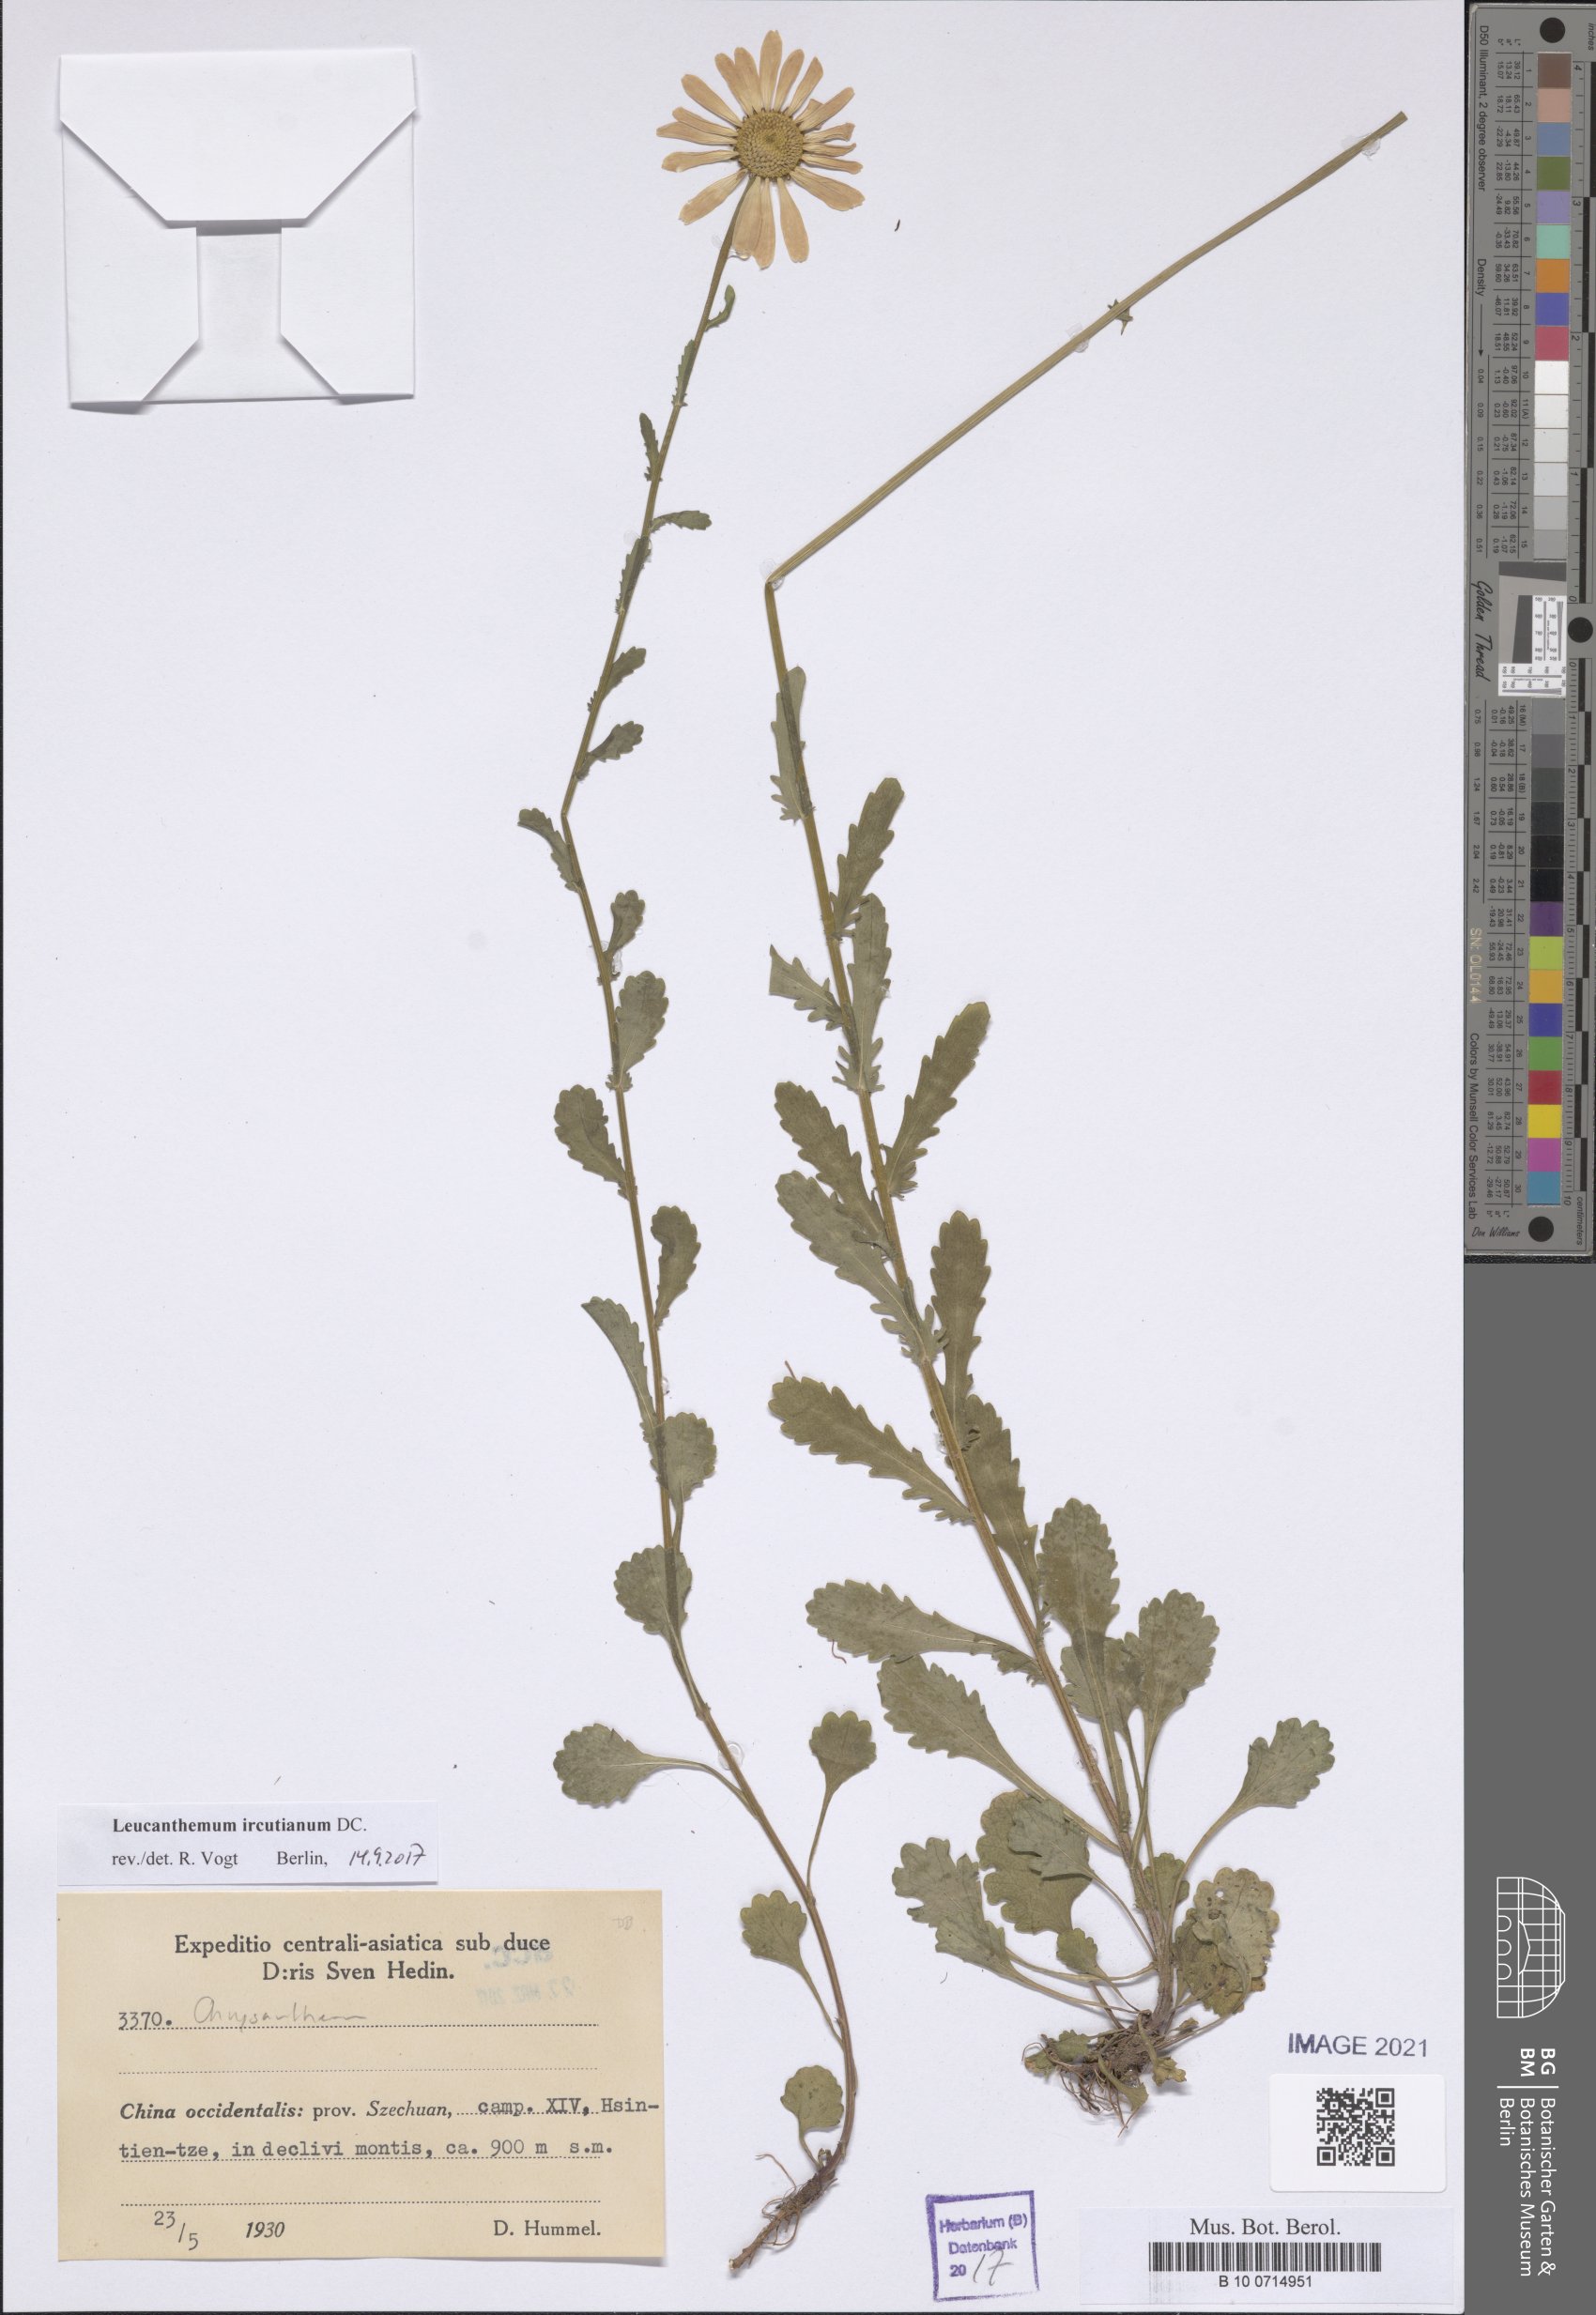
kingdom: Plantae
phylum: Tracheophyta
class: Magnoliopsida
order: Asterales
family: Asteraceae
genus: Leucanthemum
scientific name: Leucanthemum ircutianum
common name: Daisy
